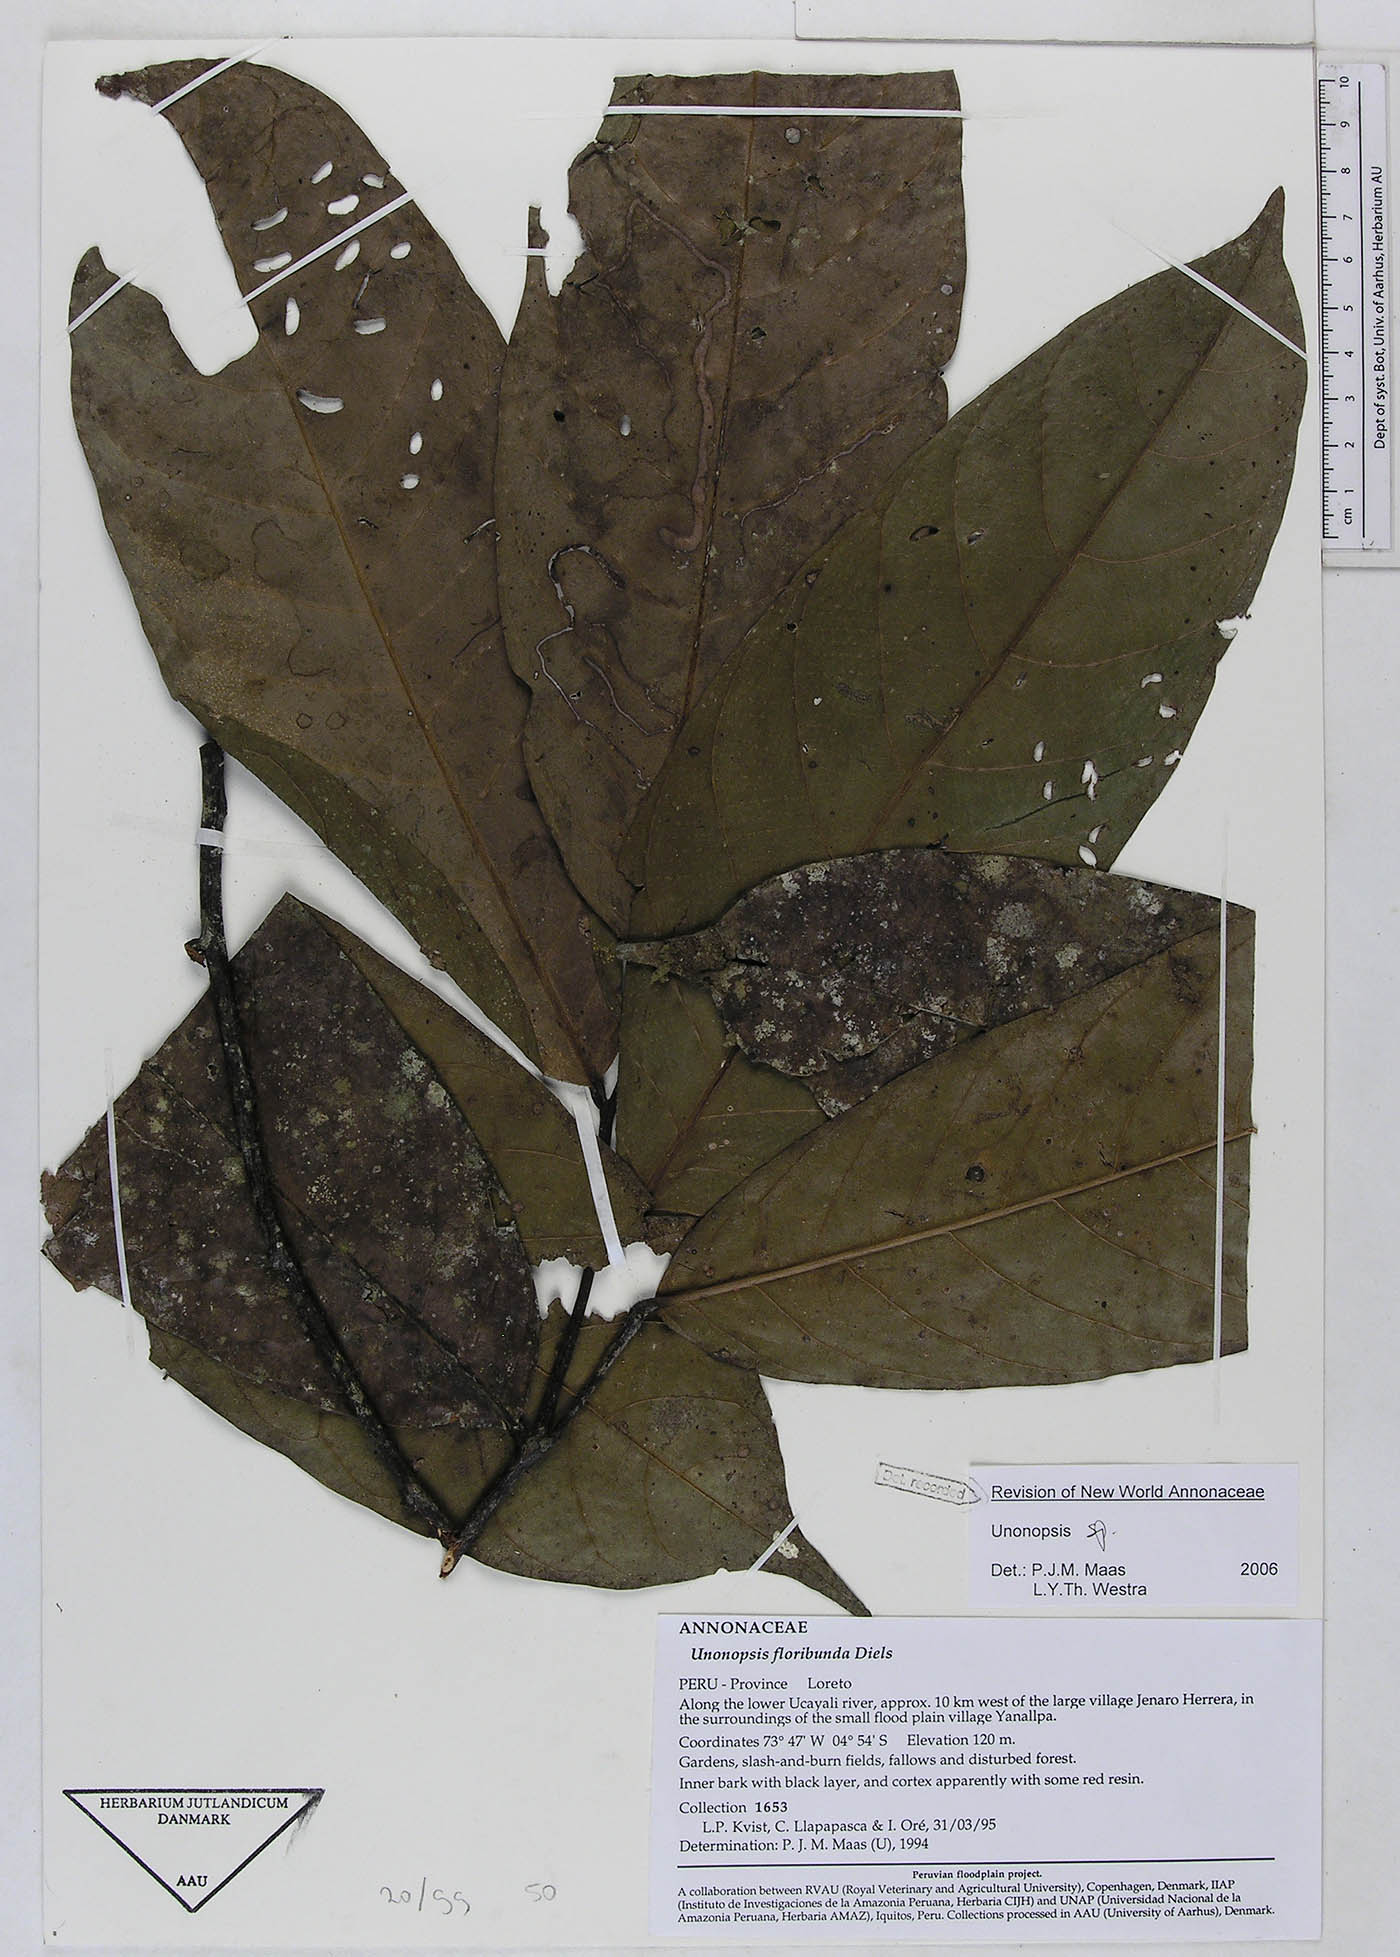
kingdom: Plantae
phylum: Tracheophyta
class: Magnoliopsida
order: Magnoliales
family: Annonaceae
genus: Unonopsis
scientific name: Unonopsis
